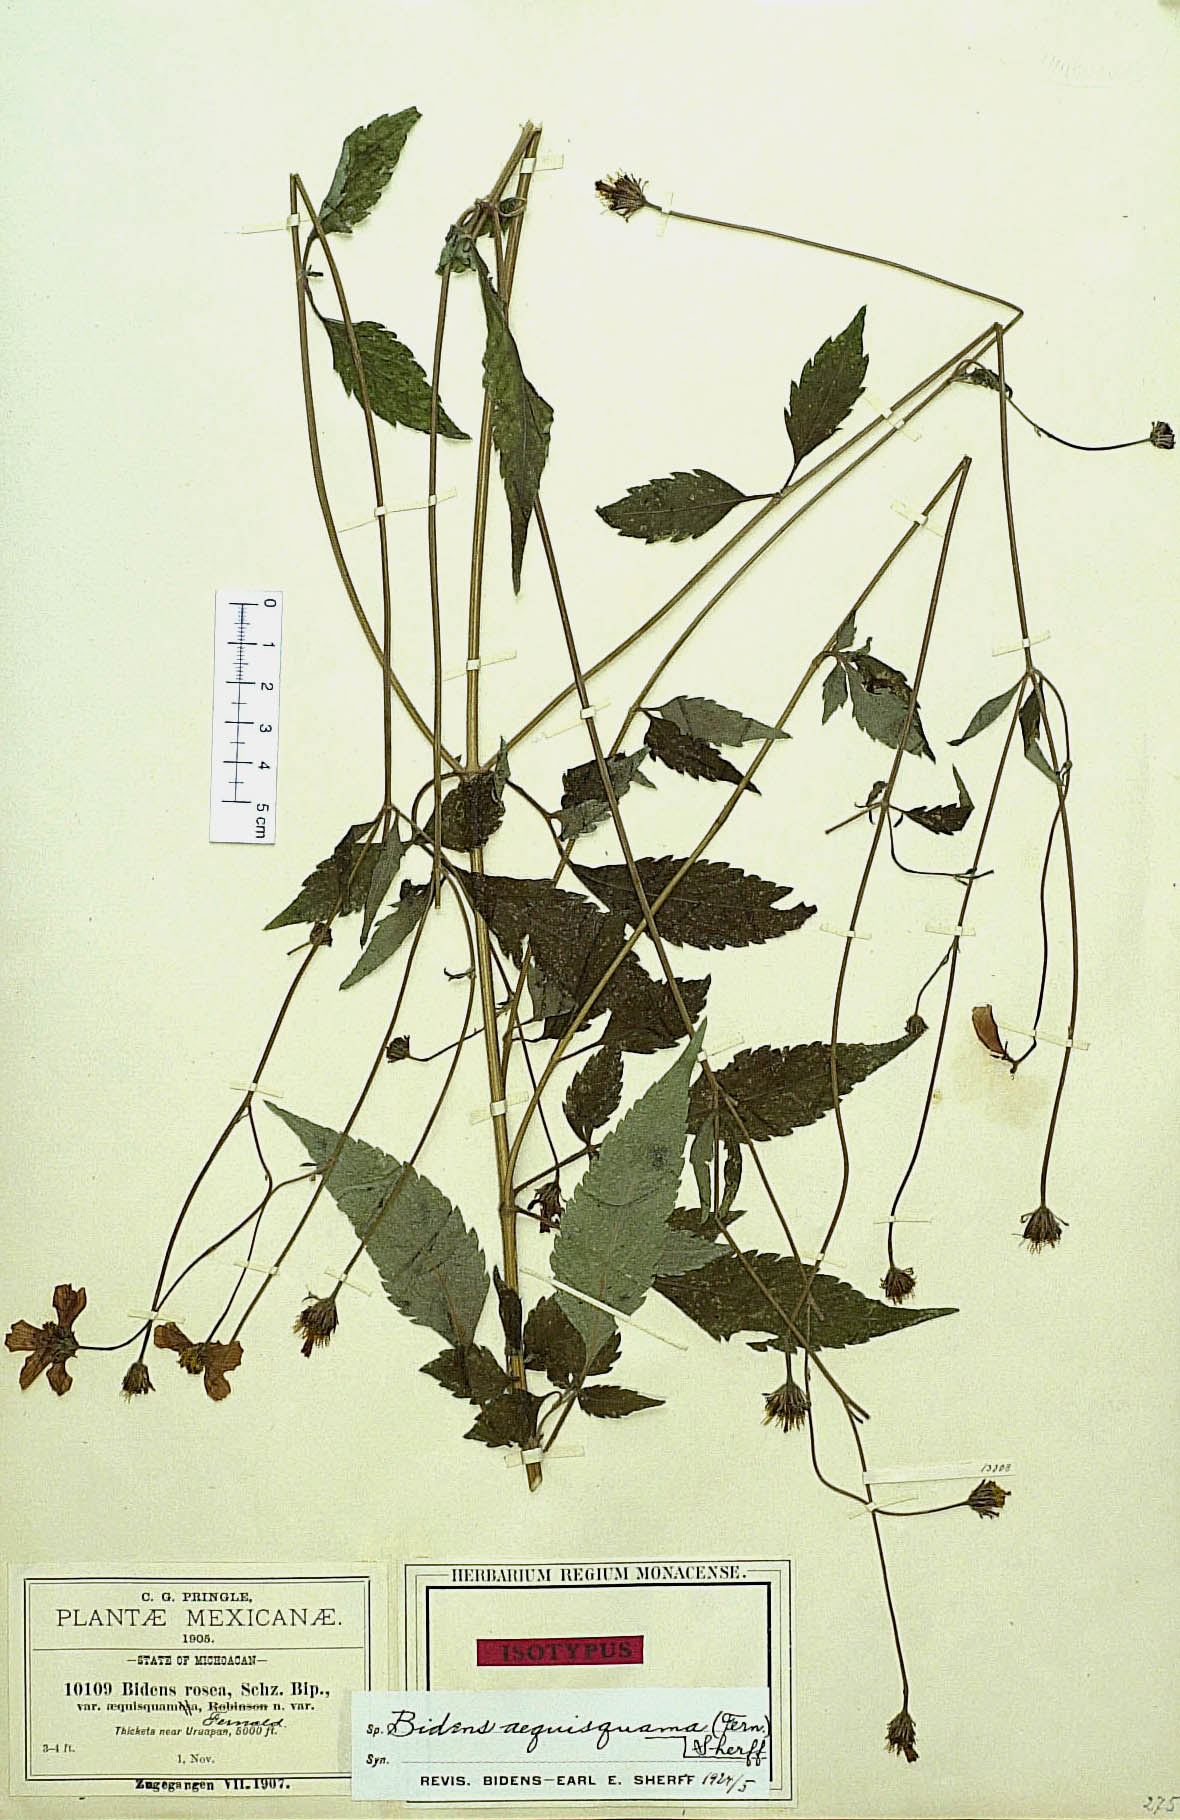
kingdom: Plantae
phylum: Tracheophyta
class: Magnoliopsida
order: Asterales
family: Asteraceae
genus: Bidens
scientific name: Bidens aequisquama
